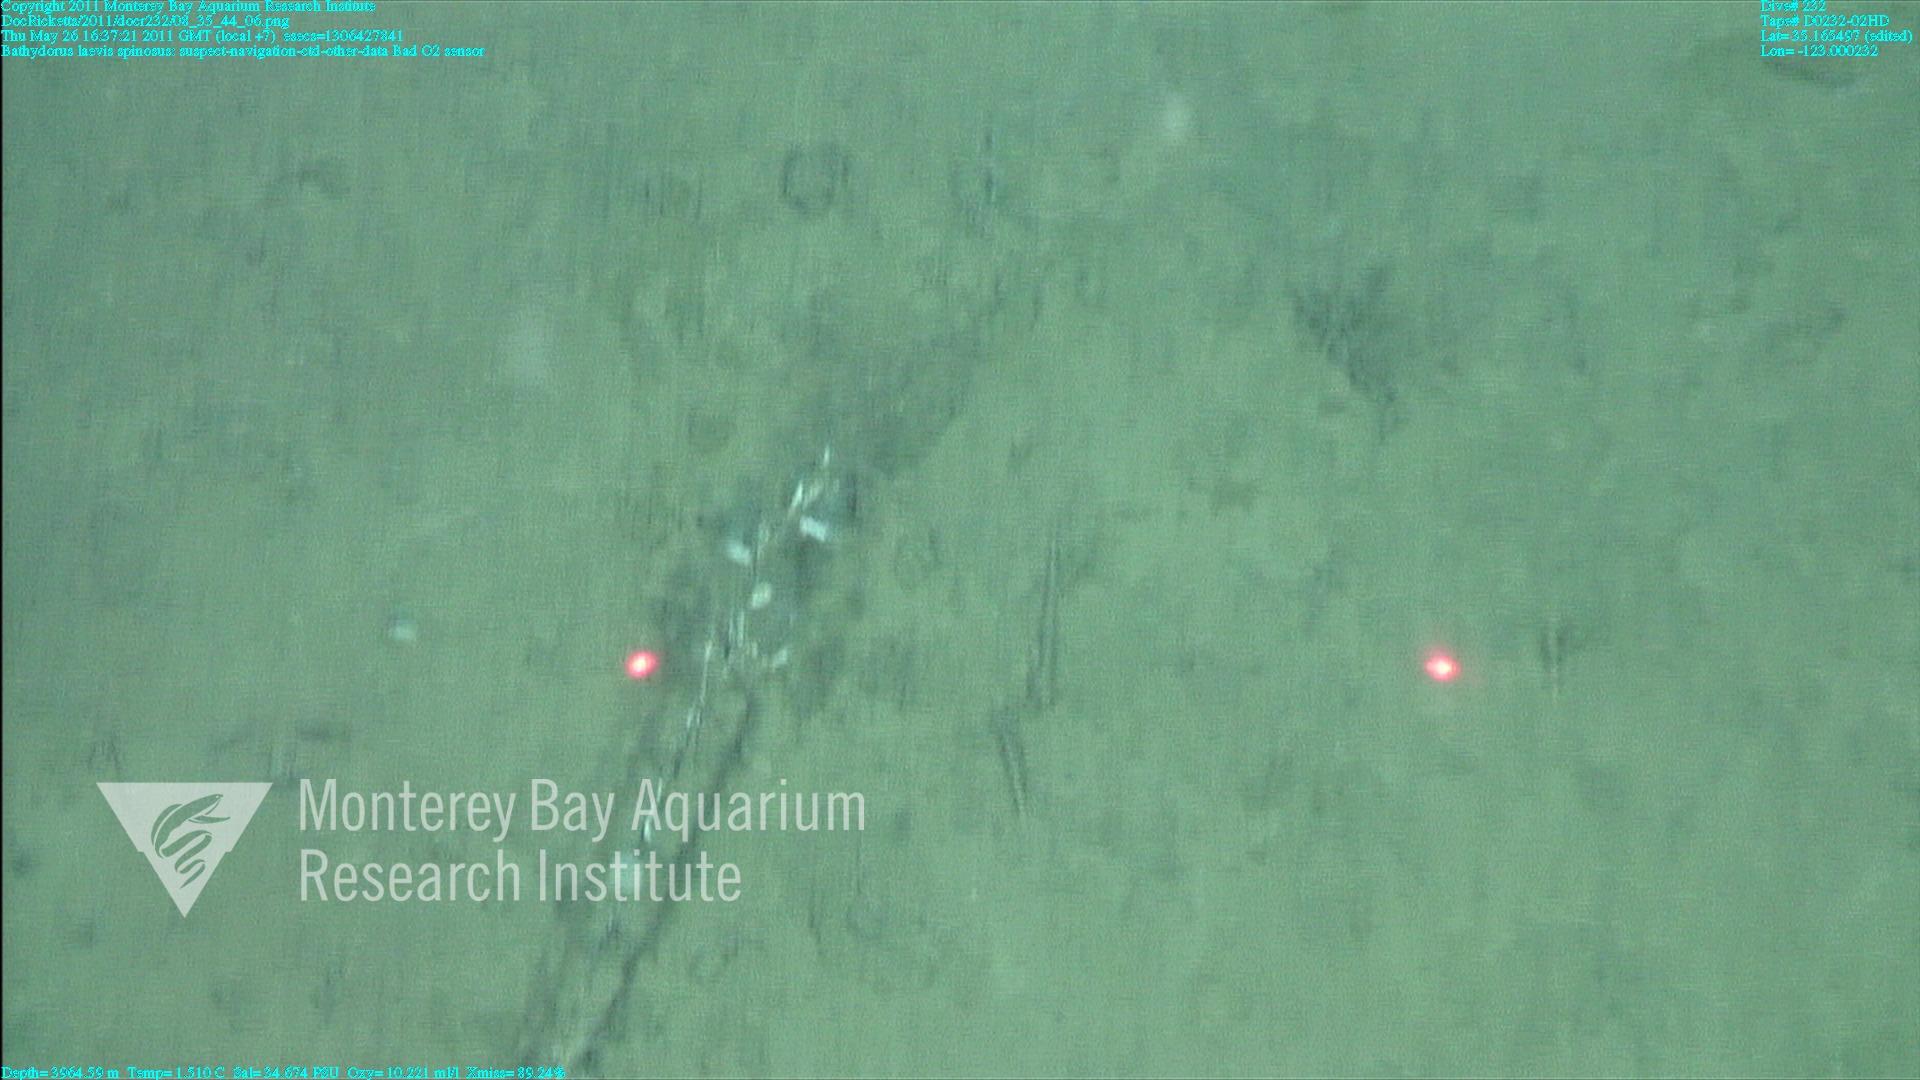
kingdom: Animalia
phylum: Porifera
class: Hexactinellida
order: Lyssacinosida
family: Rossellidae
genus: Bathydorus
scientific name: Bathydorus spinosus
